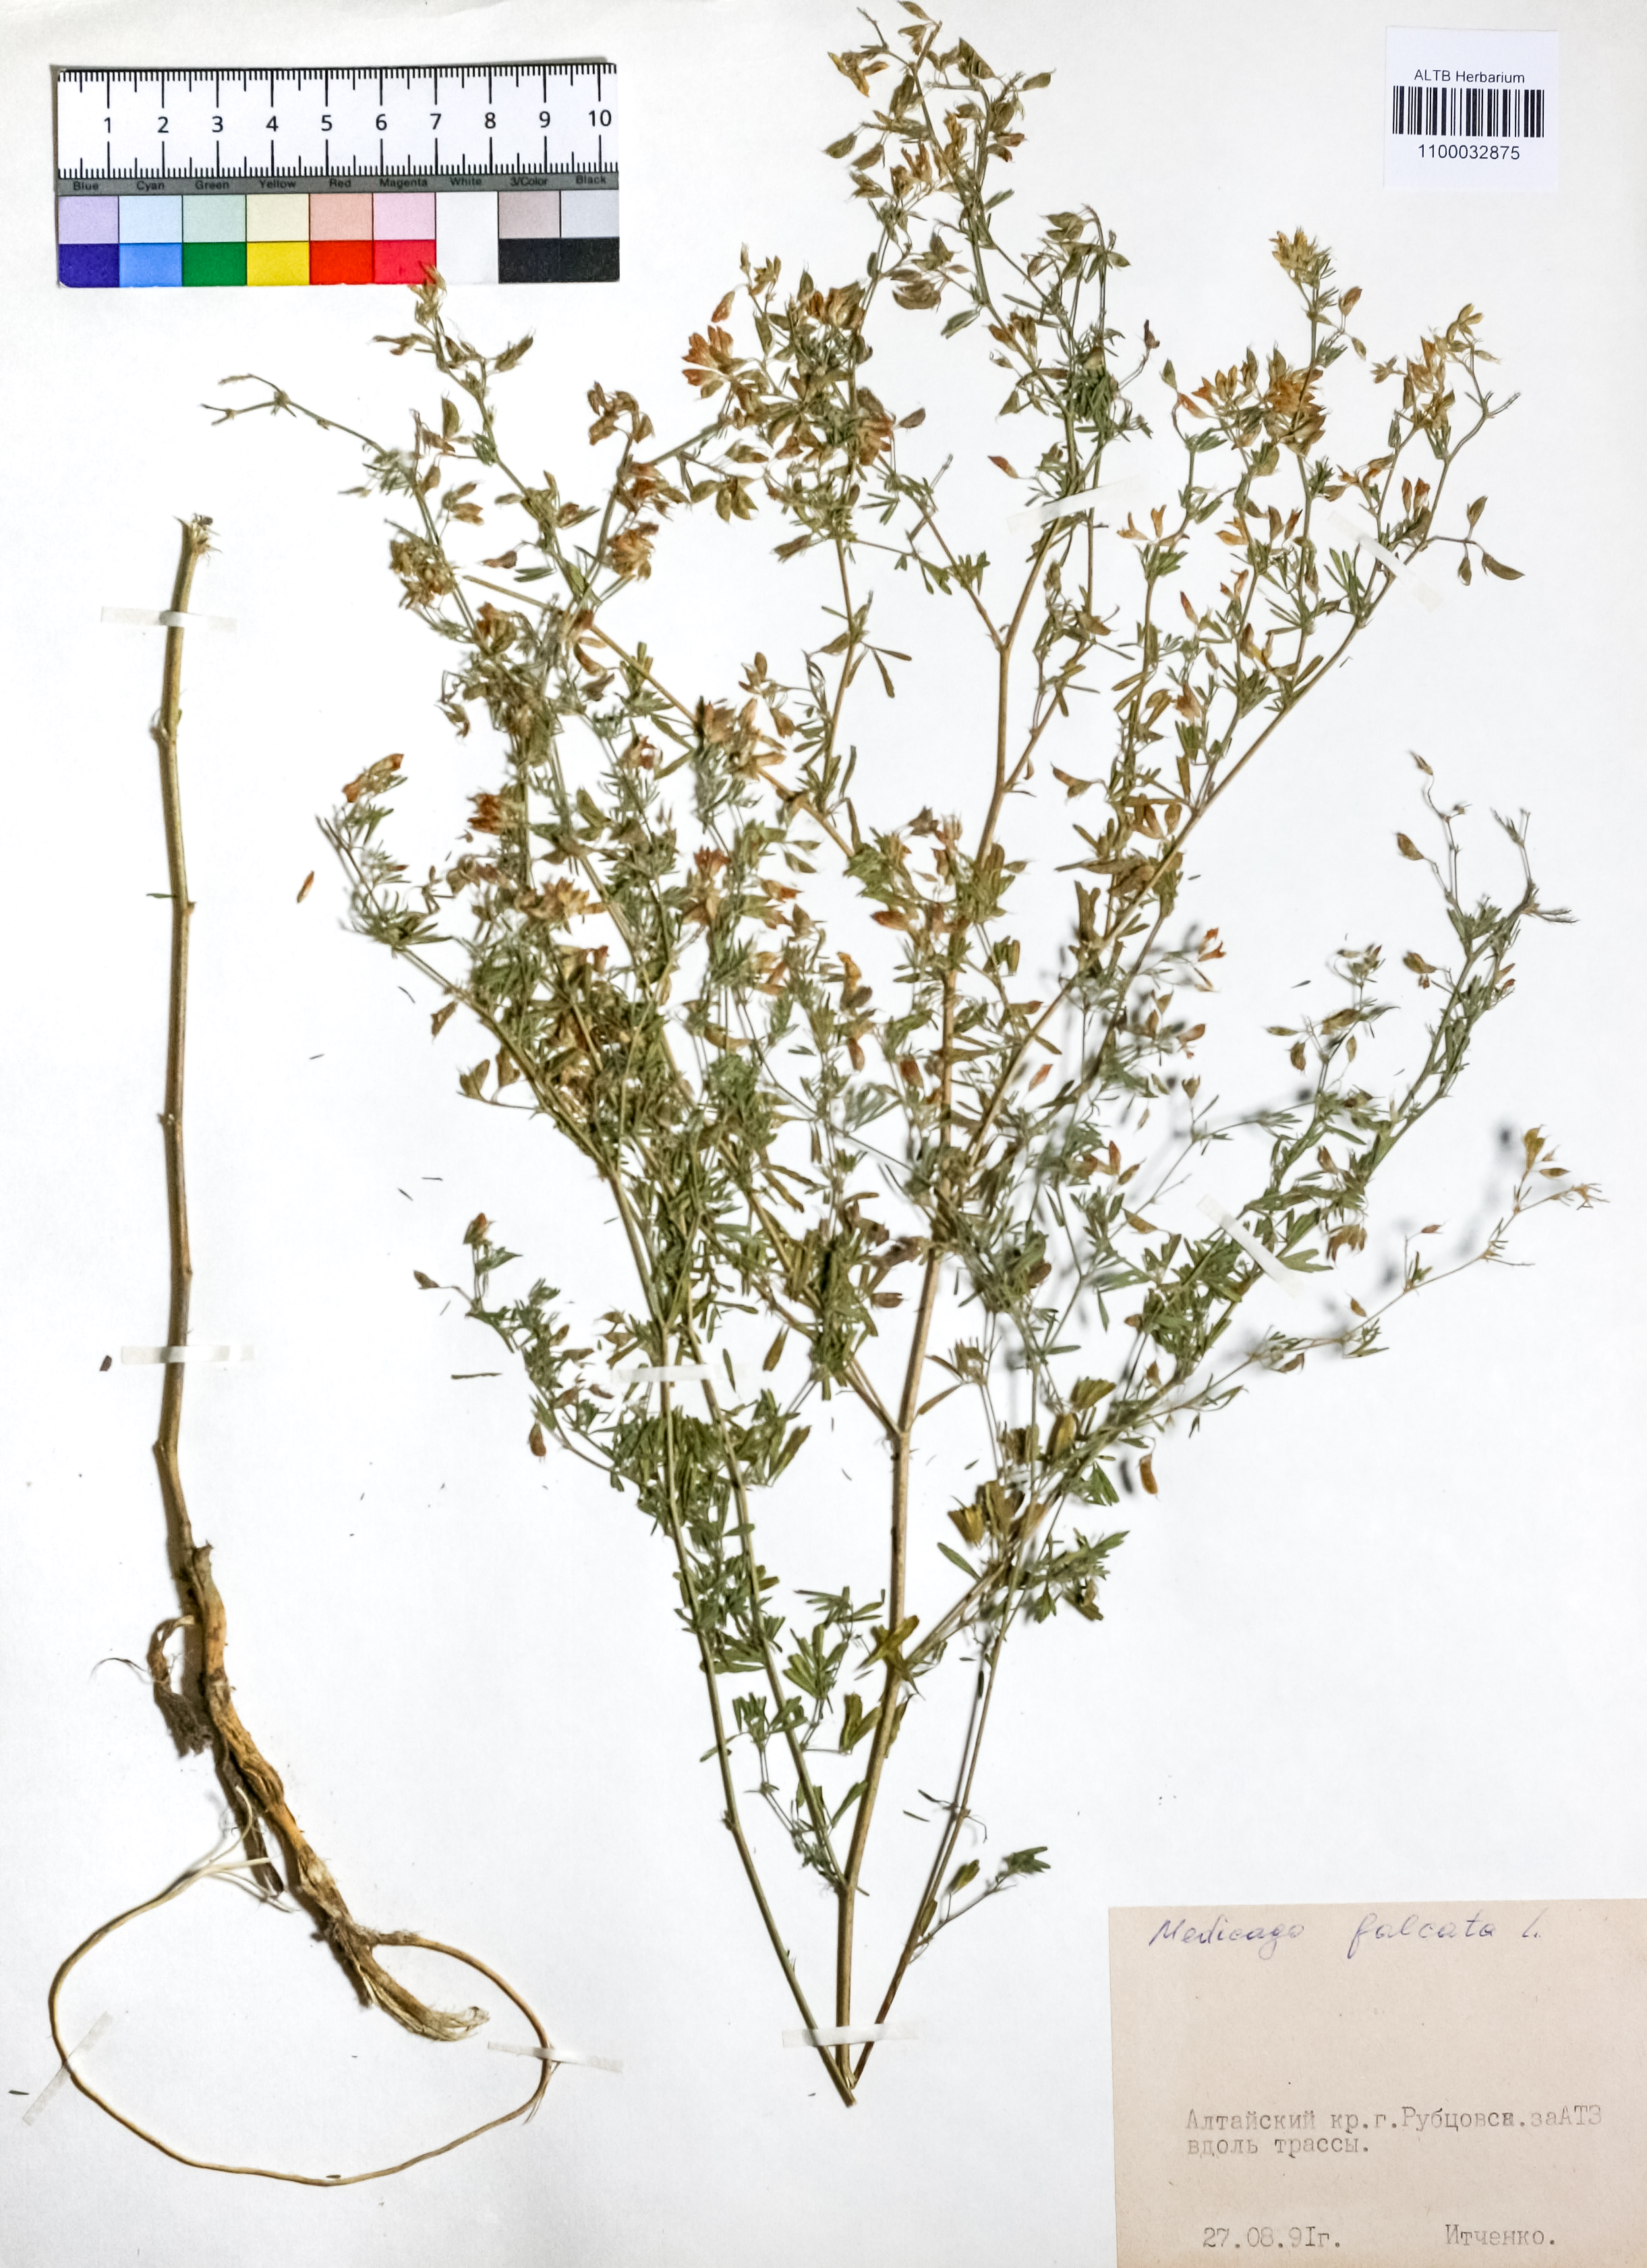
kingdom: Plantae
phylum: Tracheophyta
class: Magnoliopsida
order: Fabales
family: Fabaceae
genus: Medicago
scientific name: Medicago falcata
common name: Sickle medick
